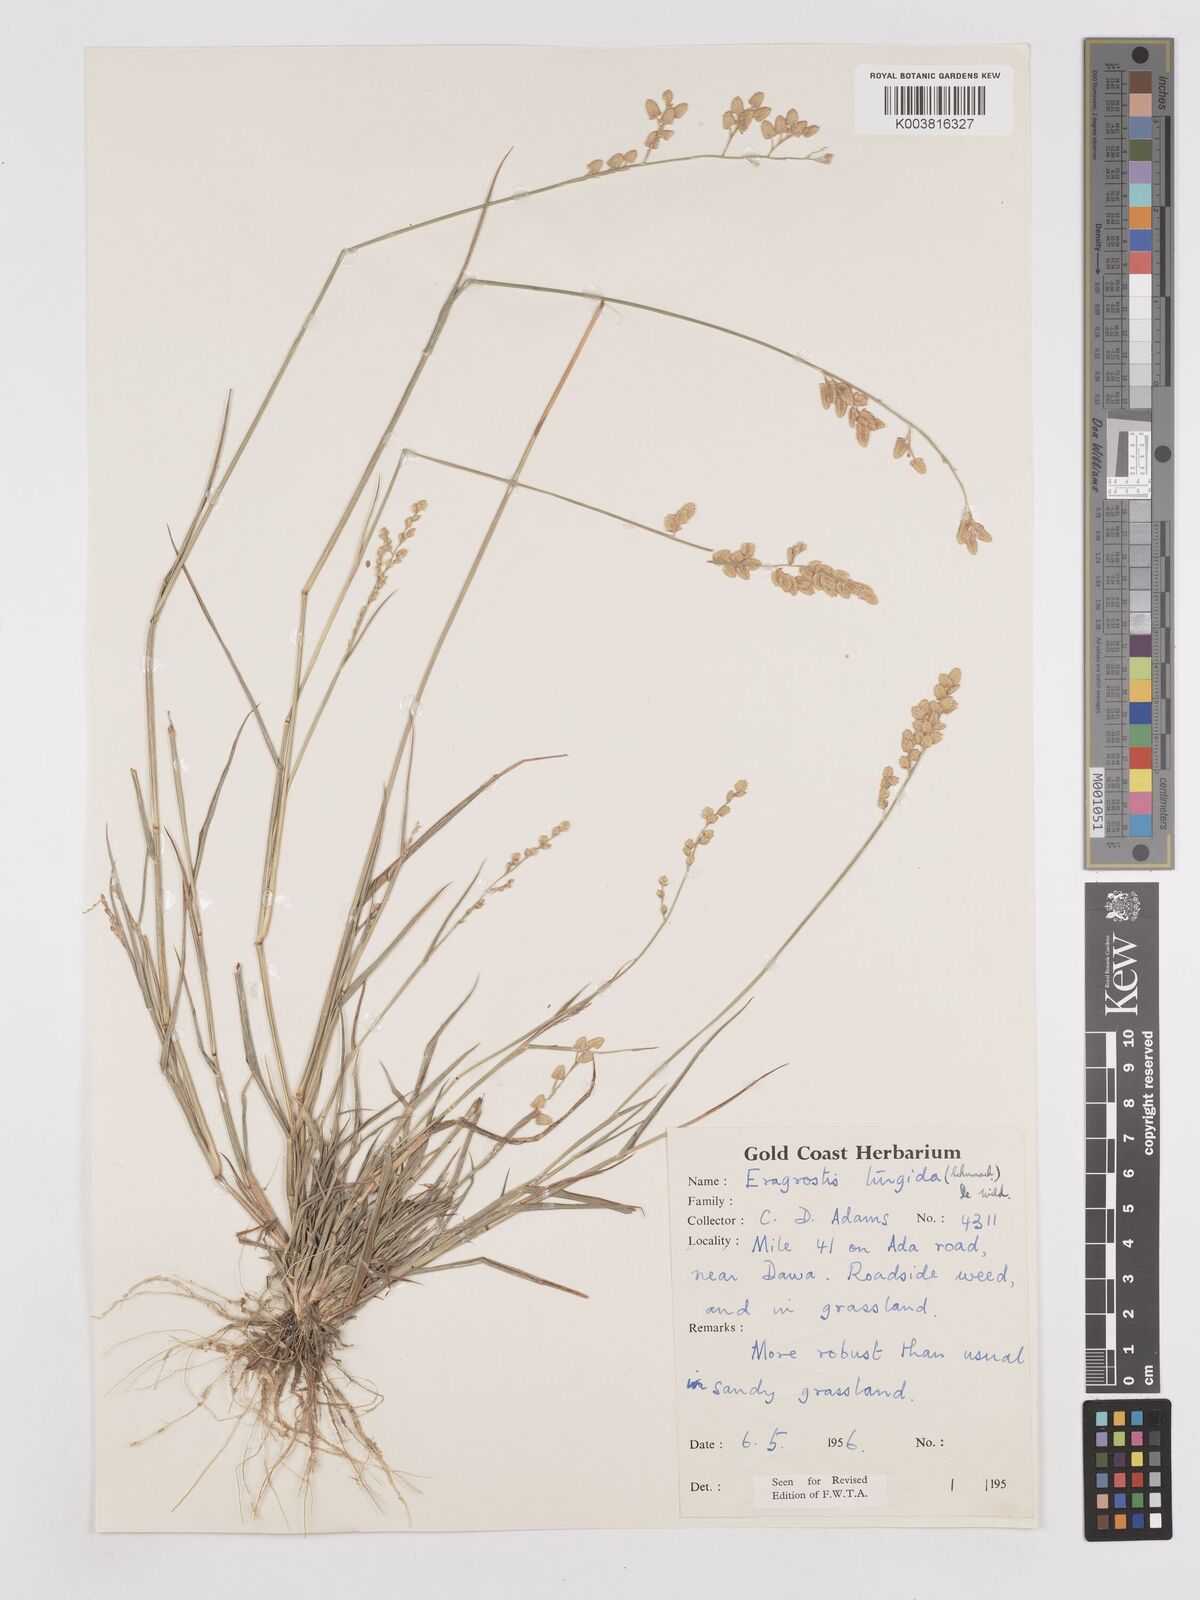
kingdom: Plantae
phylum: Tracheophyta
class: Liliopsida
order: Poales
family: Poaceae
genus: Eragrostis
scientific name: Eragrostis turgida
